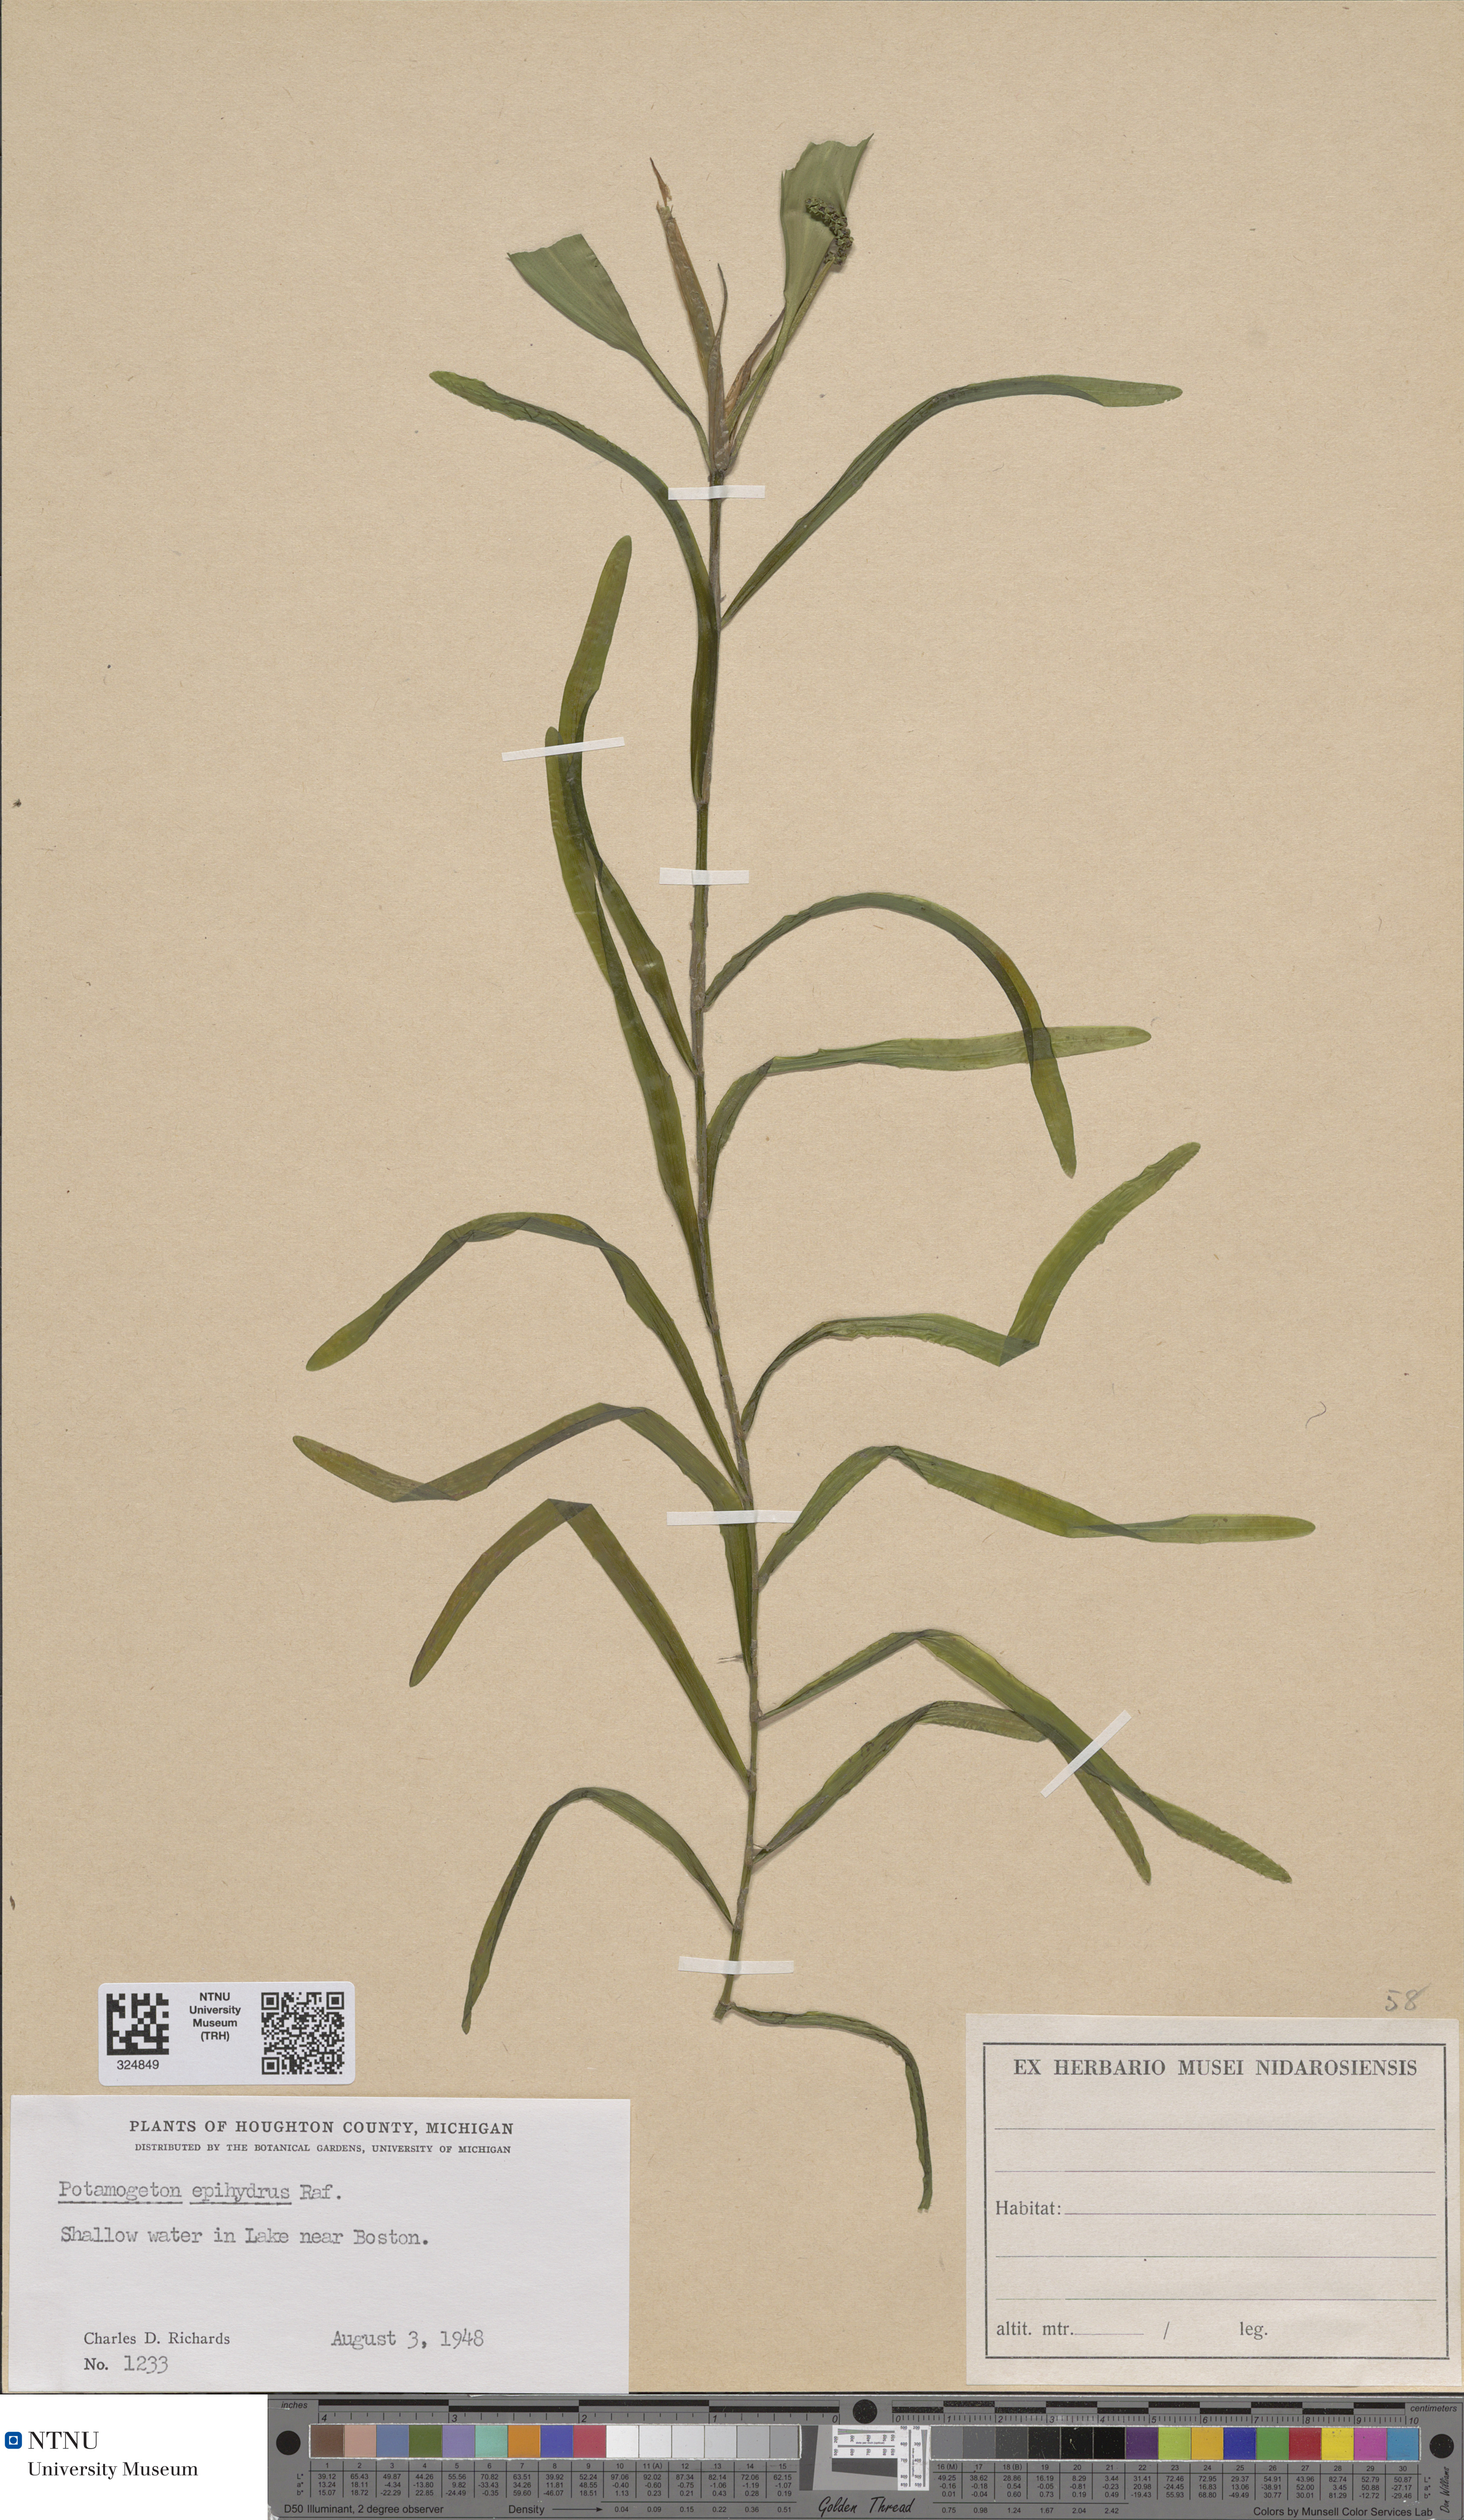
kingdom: Plantae
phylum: Tracheophyta
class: Liliopsida
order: Alismatales
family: Potamogetonaceae
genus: Potamogeton
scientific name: Potamogeton epihydrus
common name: American pondweed
